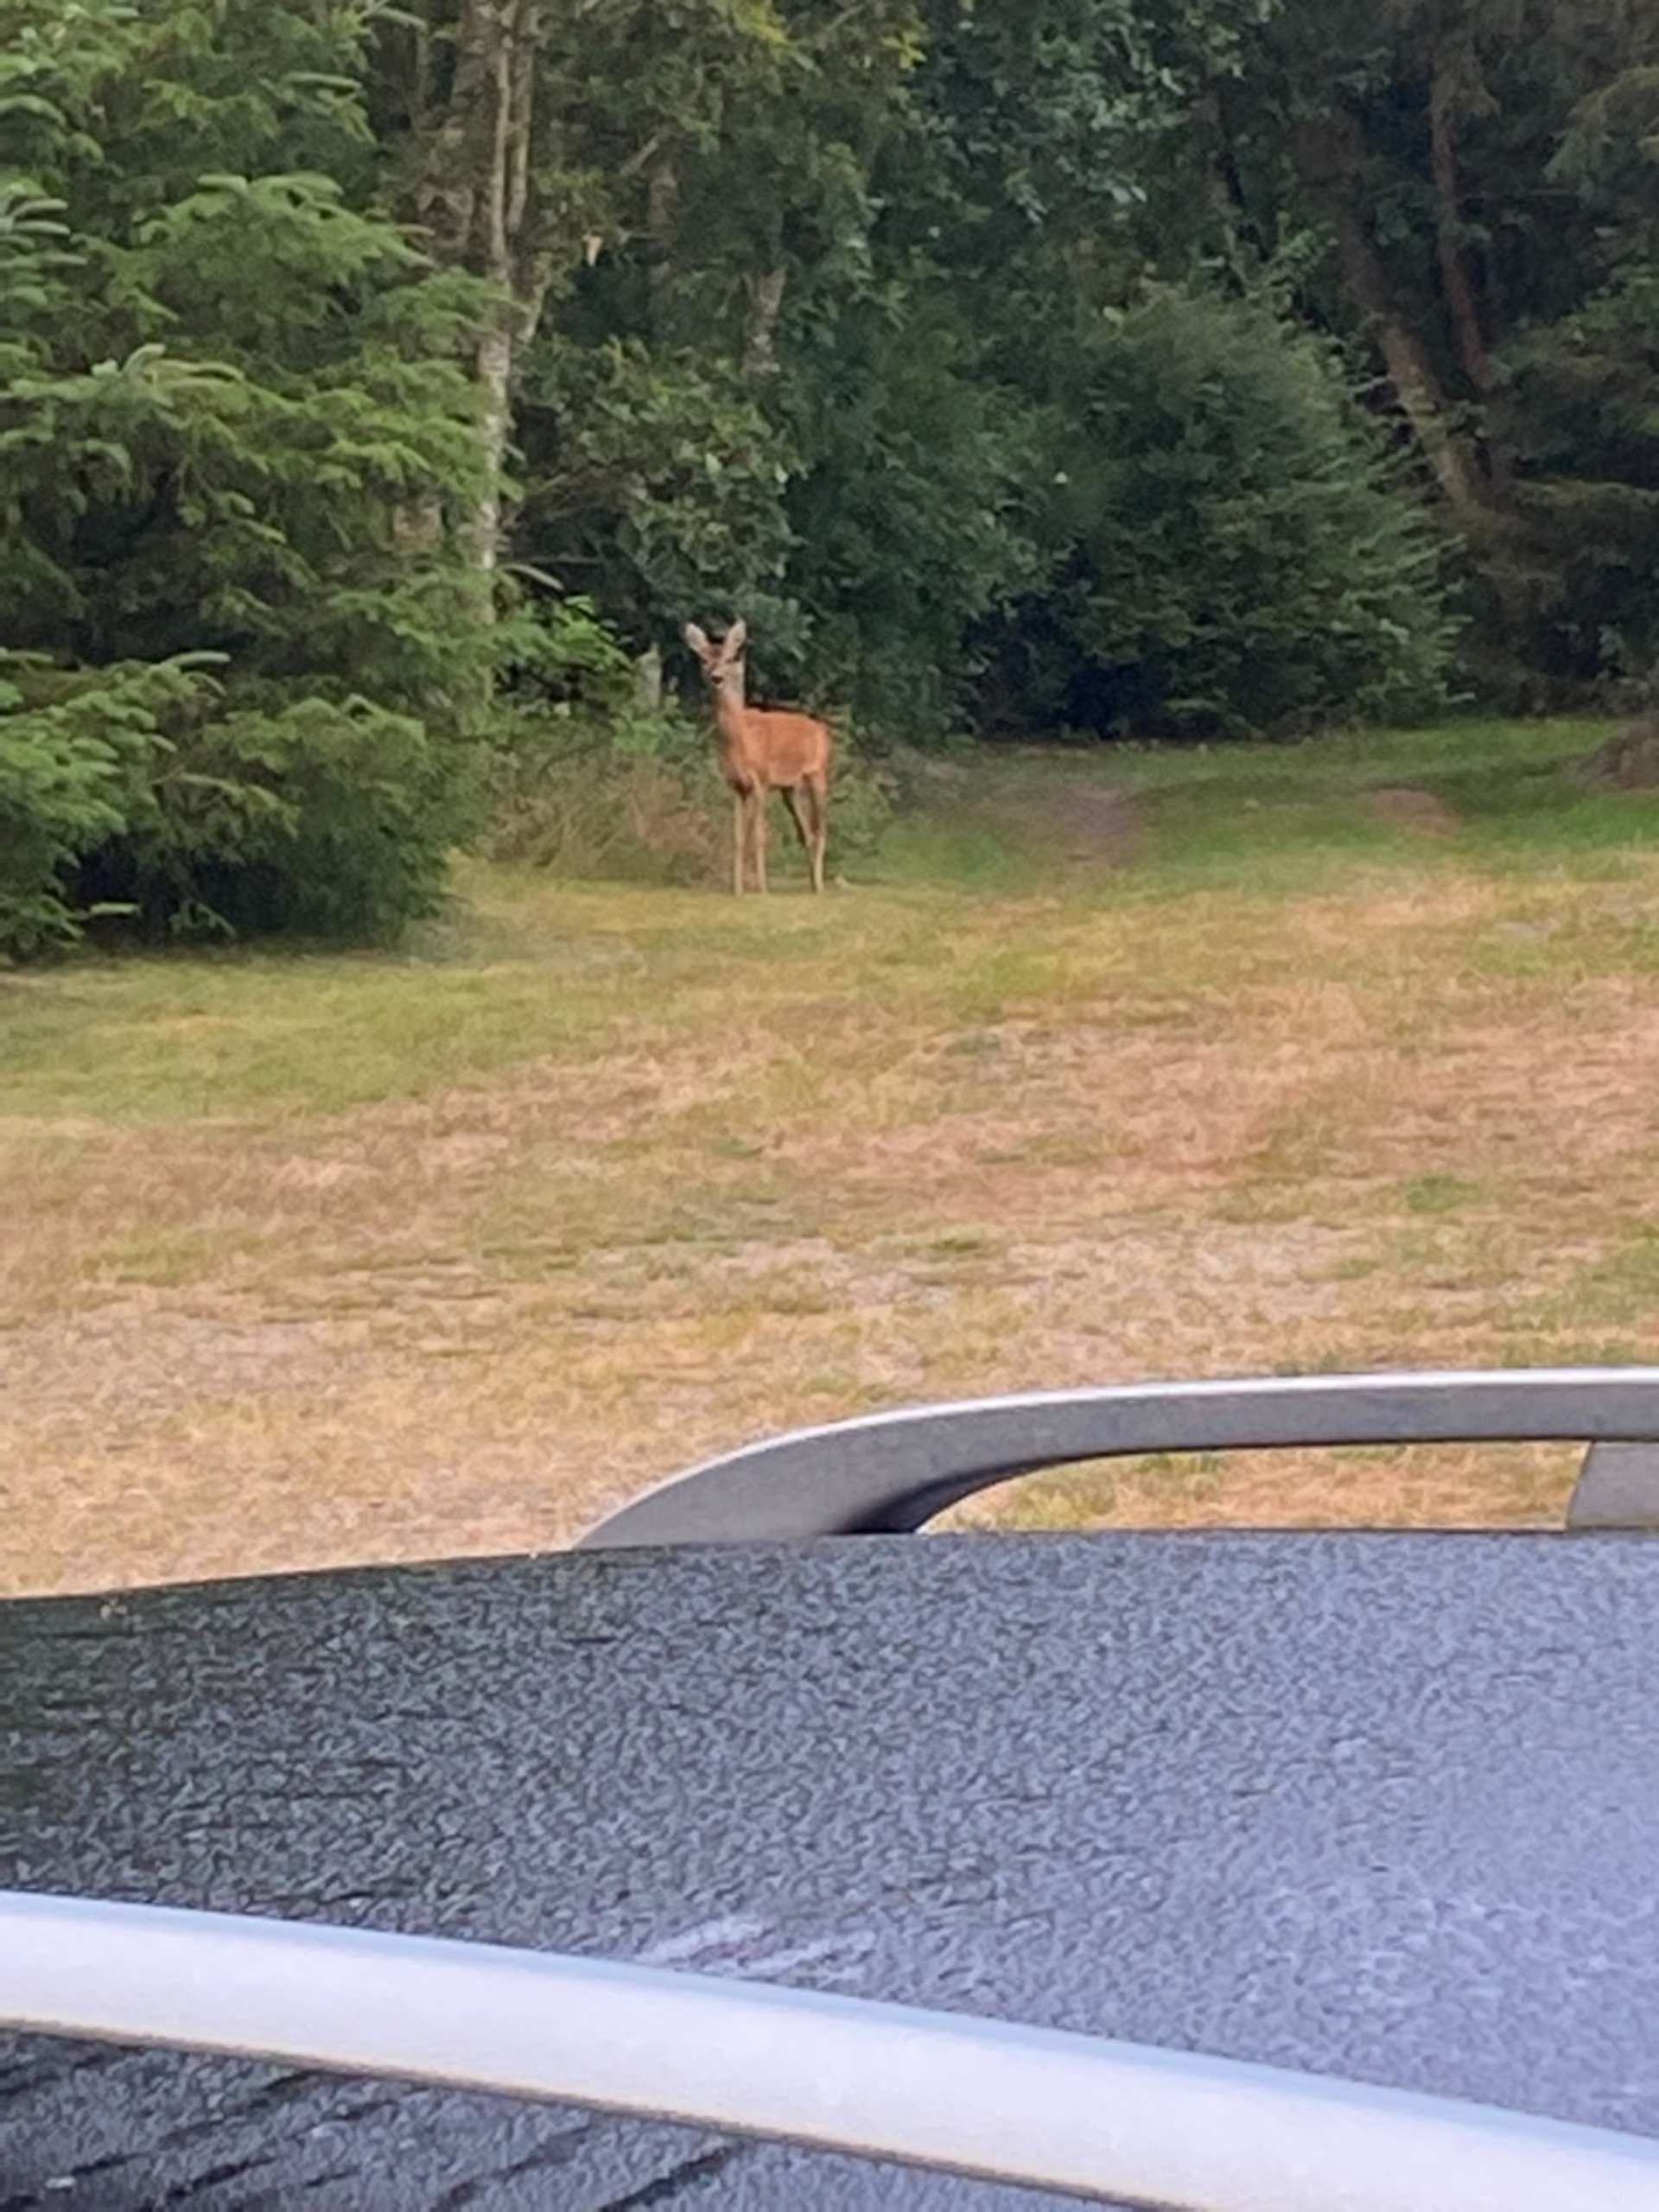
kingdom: Animalia
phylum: Chordata
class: Mammalia
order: Artiodactyla
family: Cervidae
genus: Capreolus
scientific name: Capreolus capreolus
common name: Rådyr
